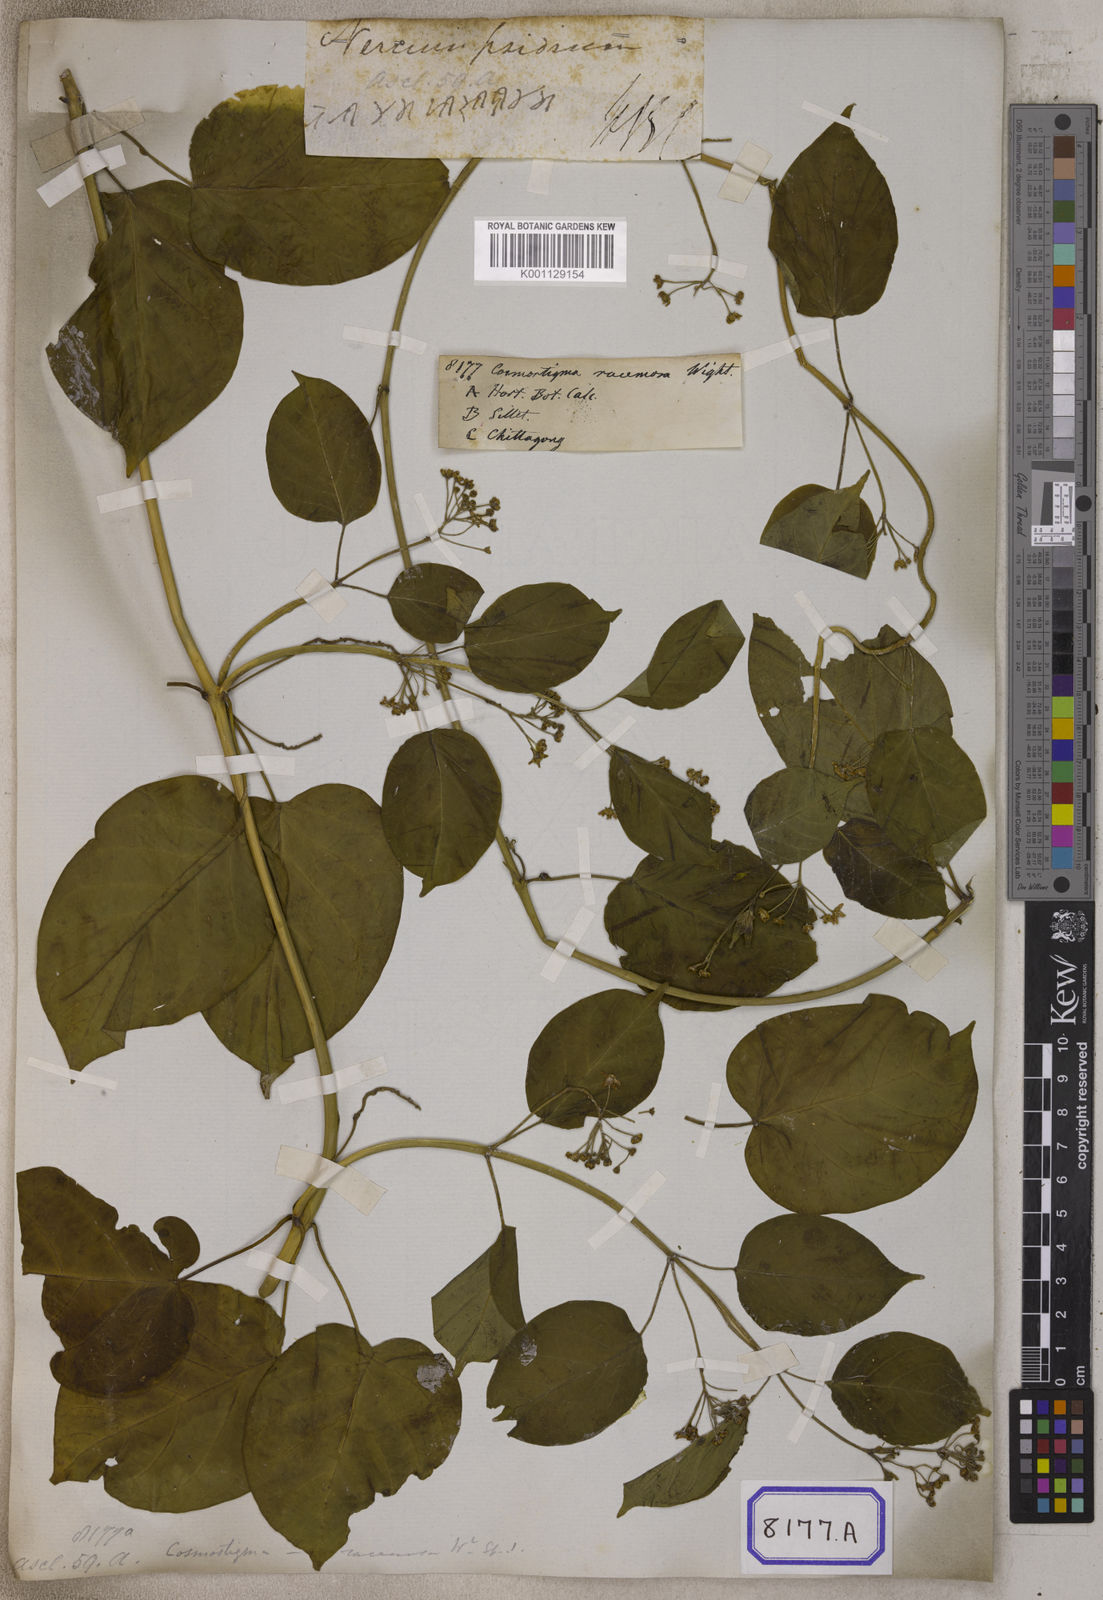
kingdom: Plantae
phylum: Tracheophyta
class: Magnoliopsida
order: Gentianales
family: Apocynaceae
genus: Cosmostigma
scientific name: Cosmostigma cordatum
